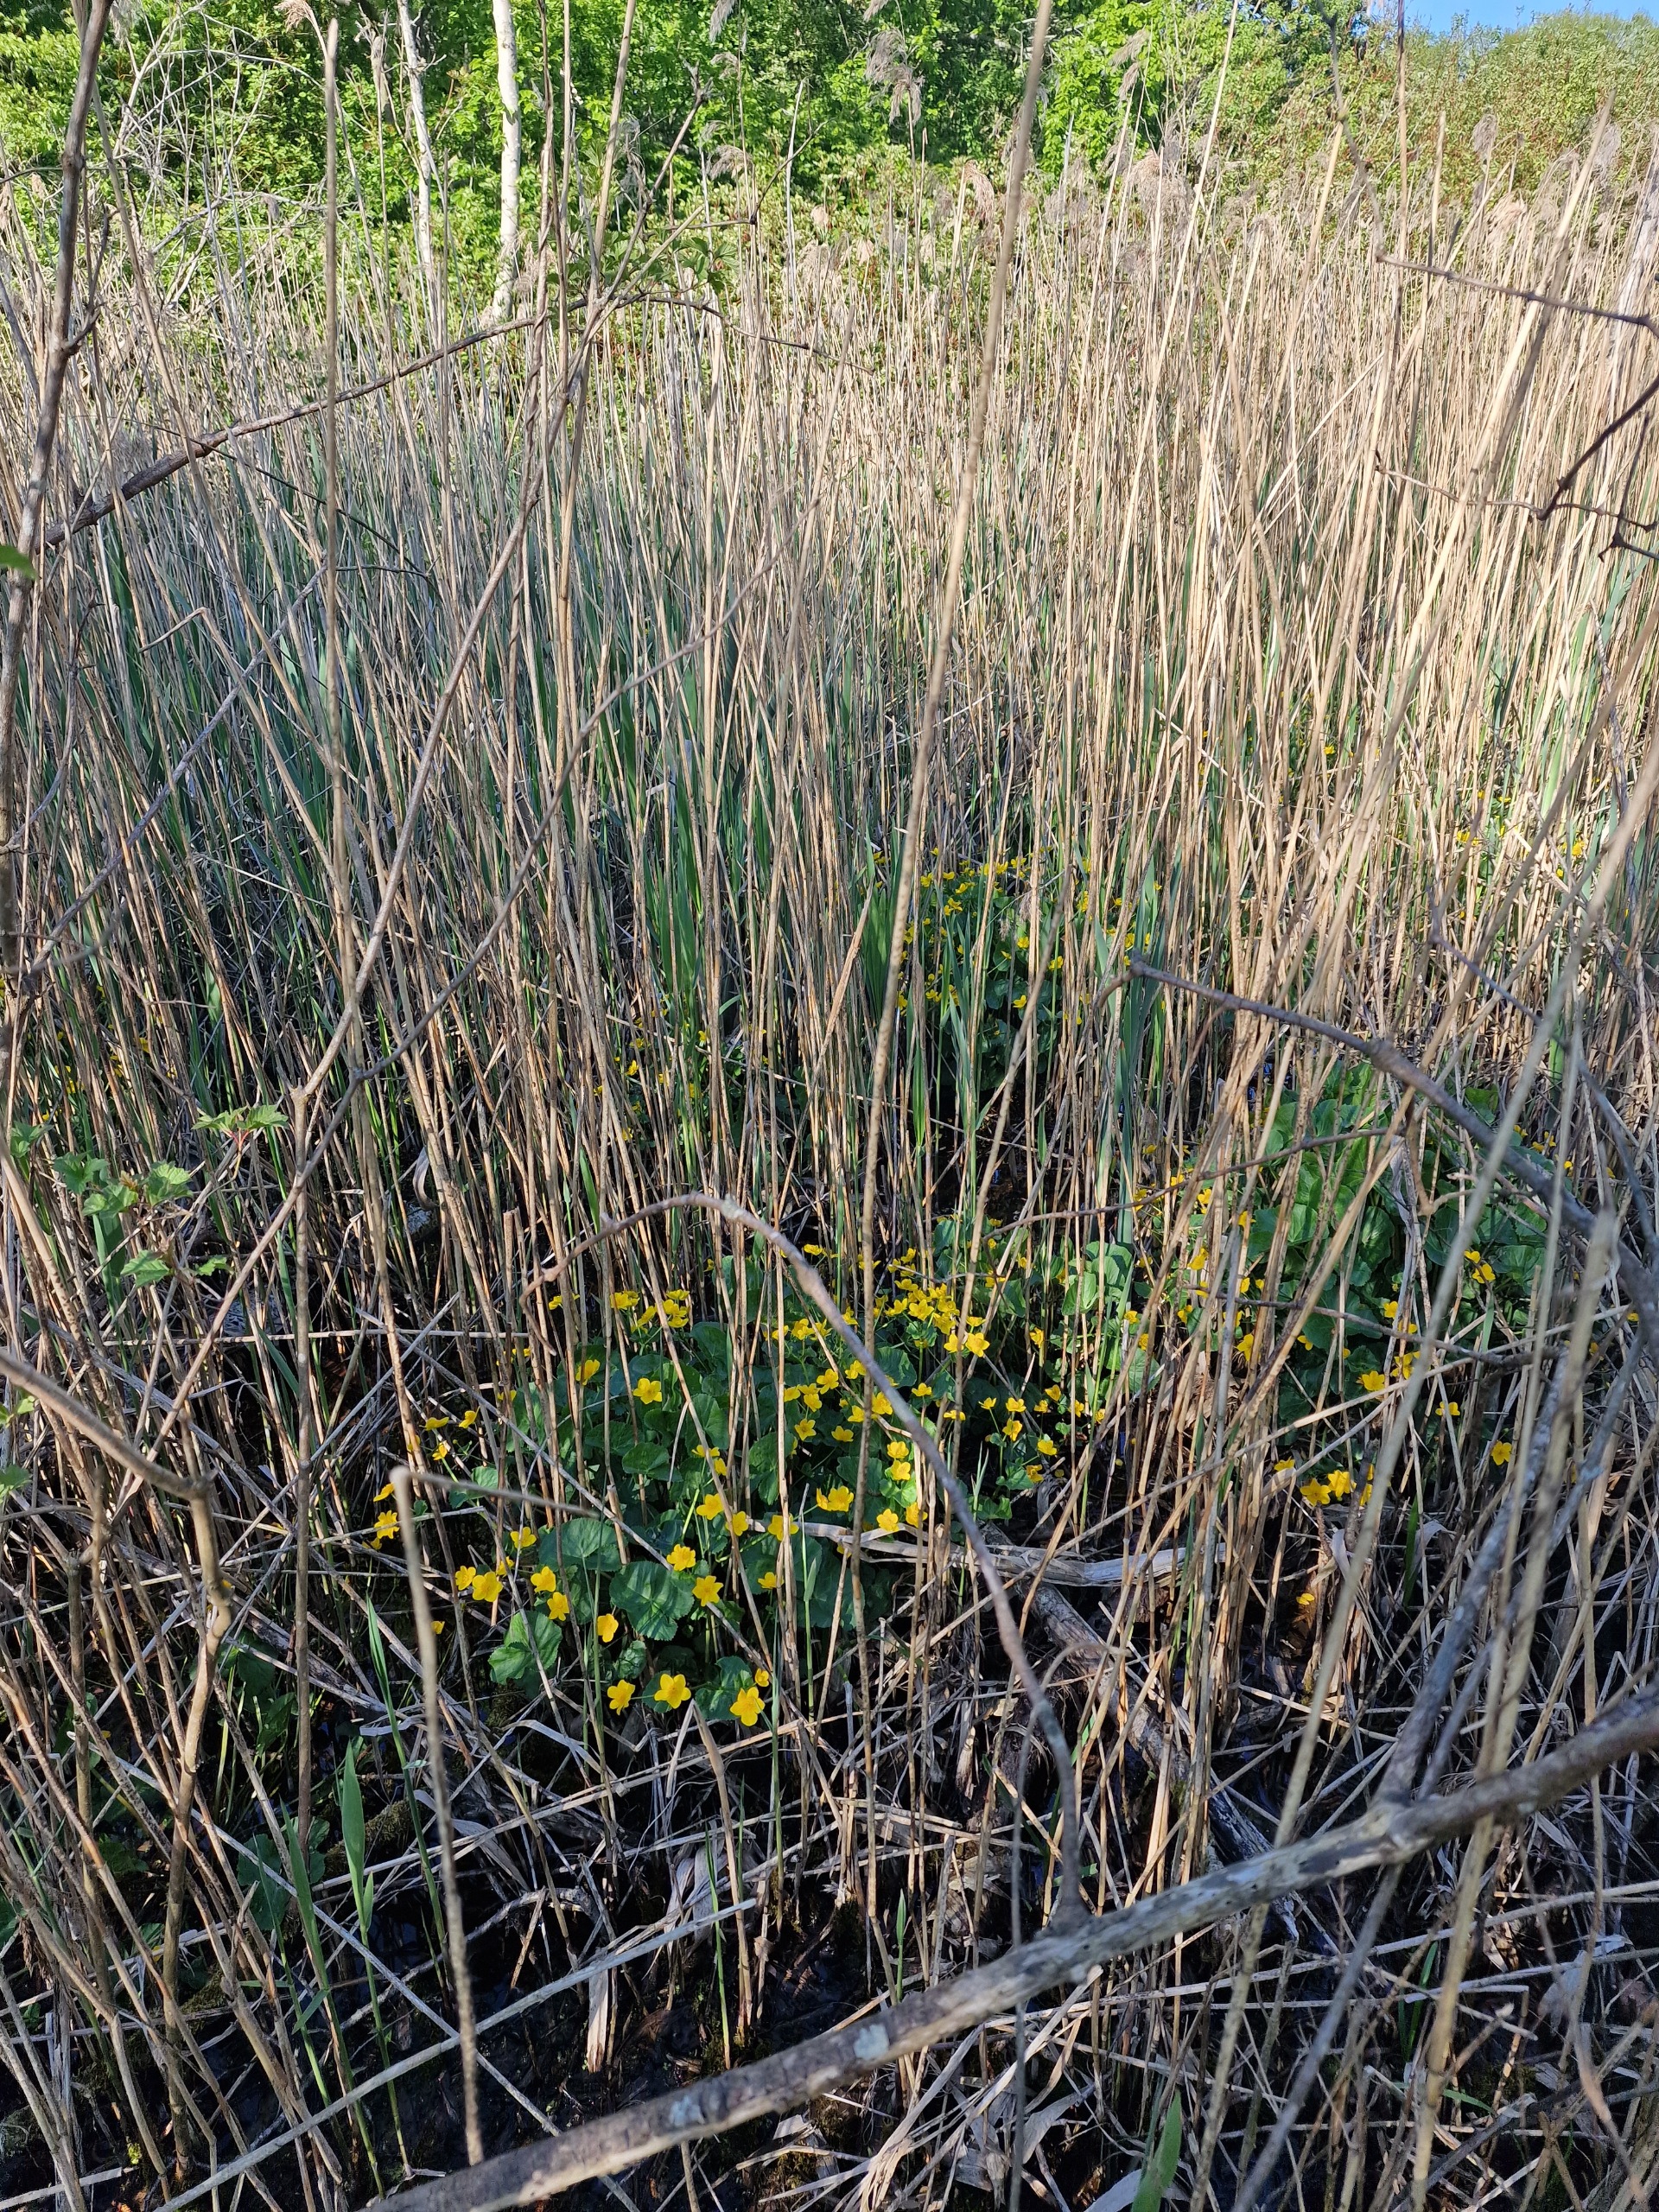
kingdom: Plantae
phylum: Tracheophyta
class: Magnoliopsida
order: Ranunculales
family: Ranunculaceae
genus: Caltha
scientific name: Caltha palustris
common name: Eng-kabbeleje
